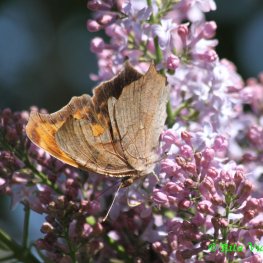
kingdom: Animalia
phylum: Arthropoda
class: Insecta
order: Lepidoptera
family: Nymphalidae
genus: Polygonia
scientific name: Polygonia interrogationis
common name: Question Mark
